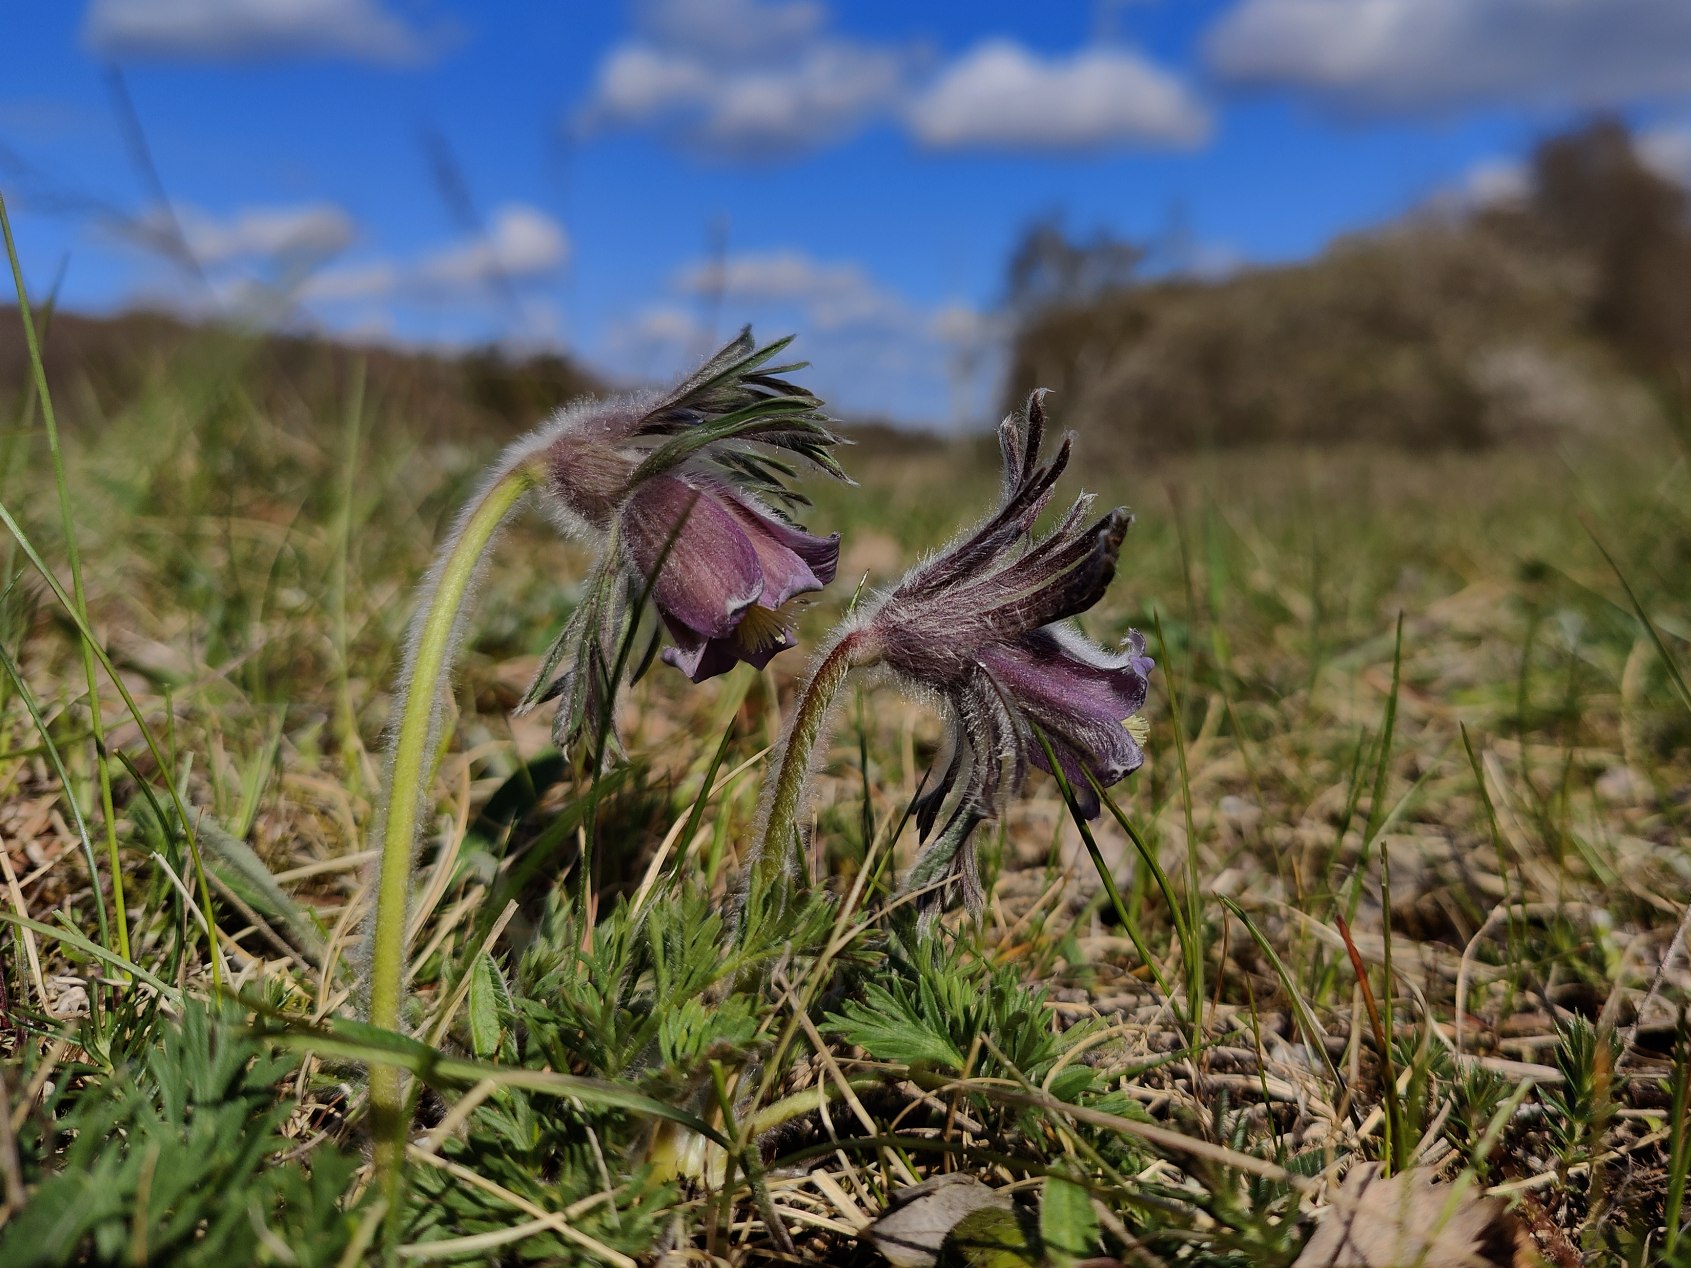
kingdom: Plantae
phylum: Tracheophyta
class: Magnoliopsida
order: Ranunculales
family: Ranunculaceae
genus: Pulsatilla
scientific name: Pulsatilla pratensis
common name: Nikkende kobjælde
